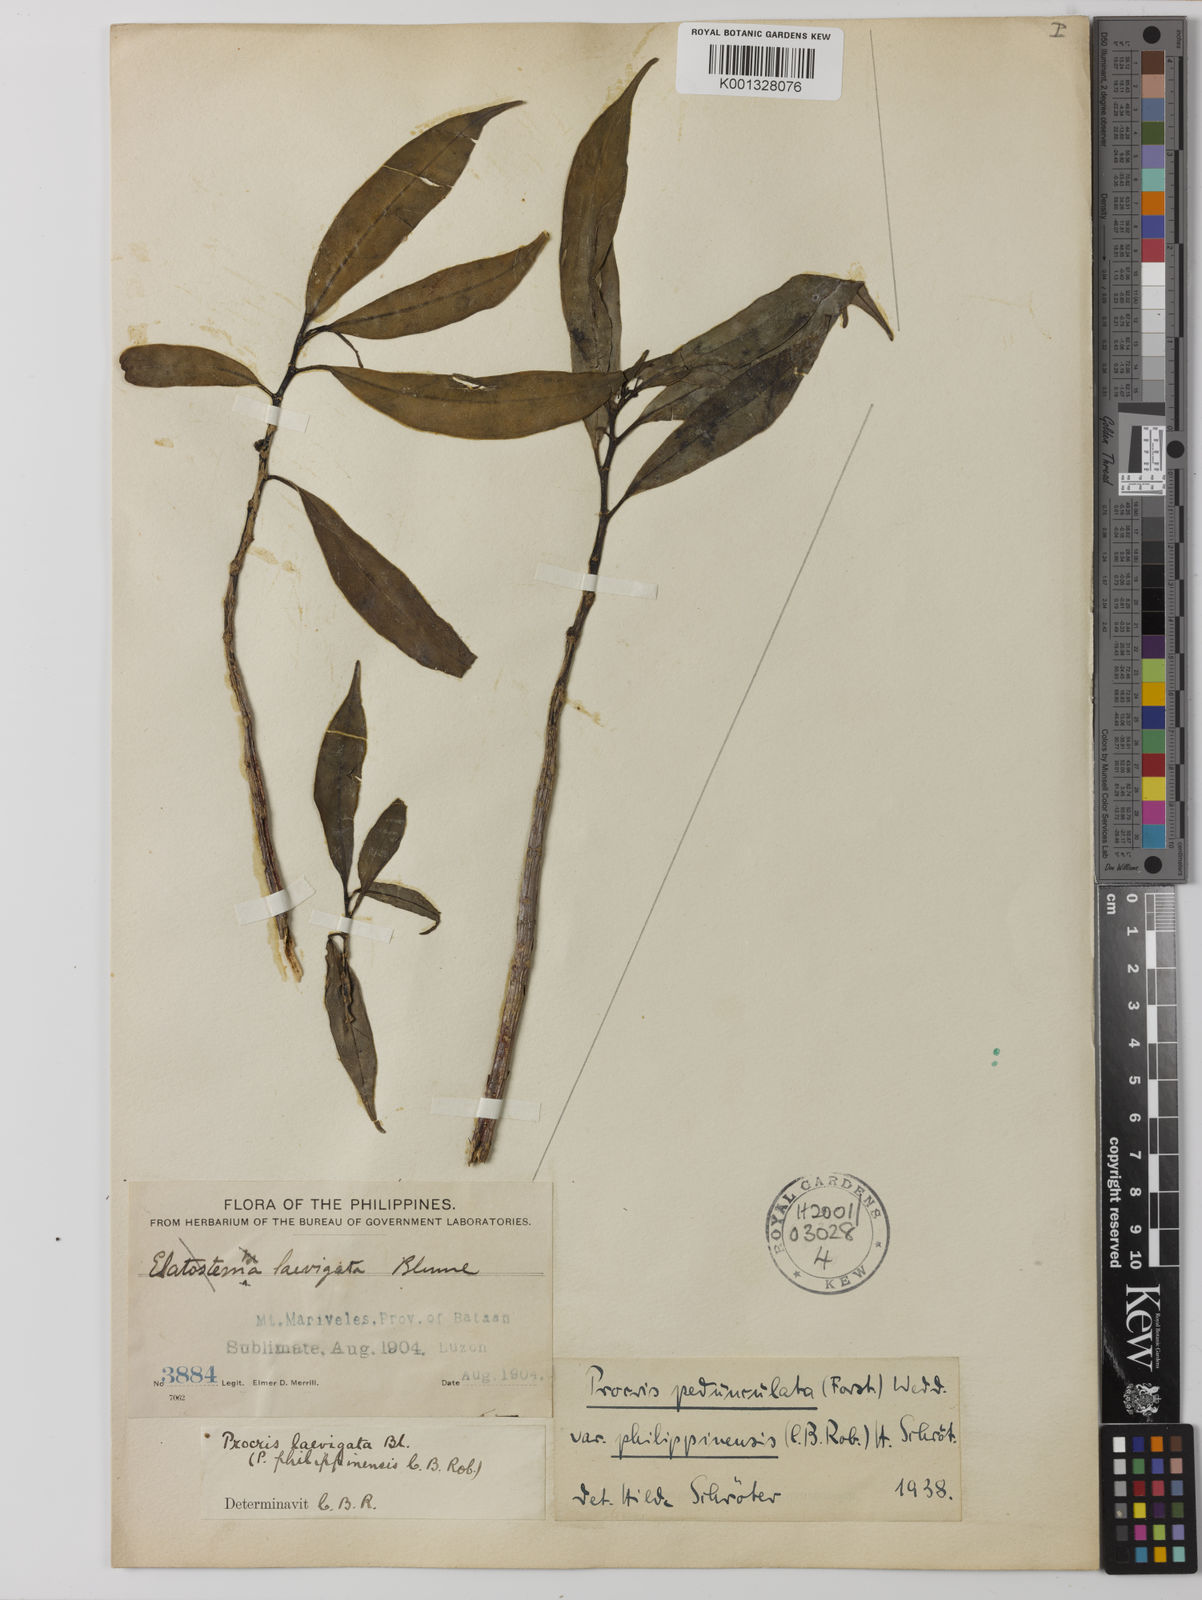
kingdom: Plantae
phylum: Tracheophyta
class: Magnoliopsida
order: Rosales
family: Urticaceae
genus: Procris
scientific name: Procris
